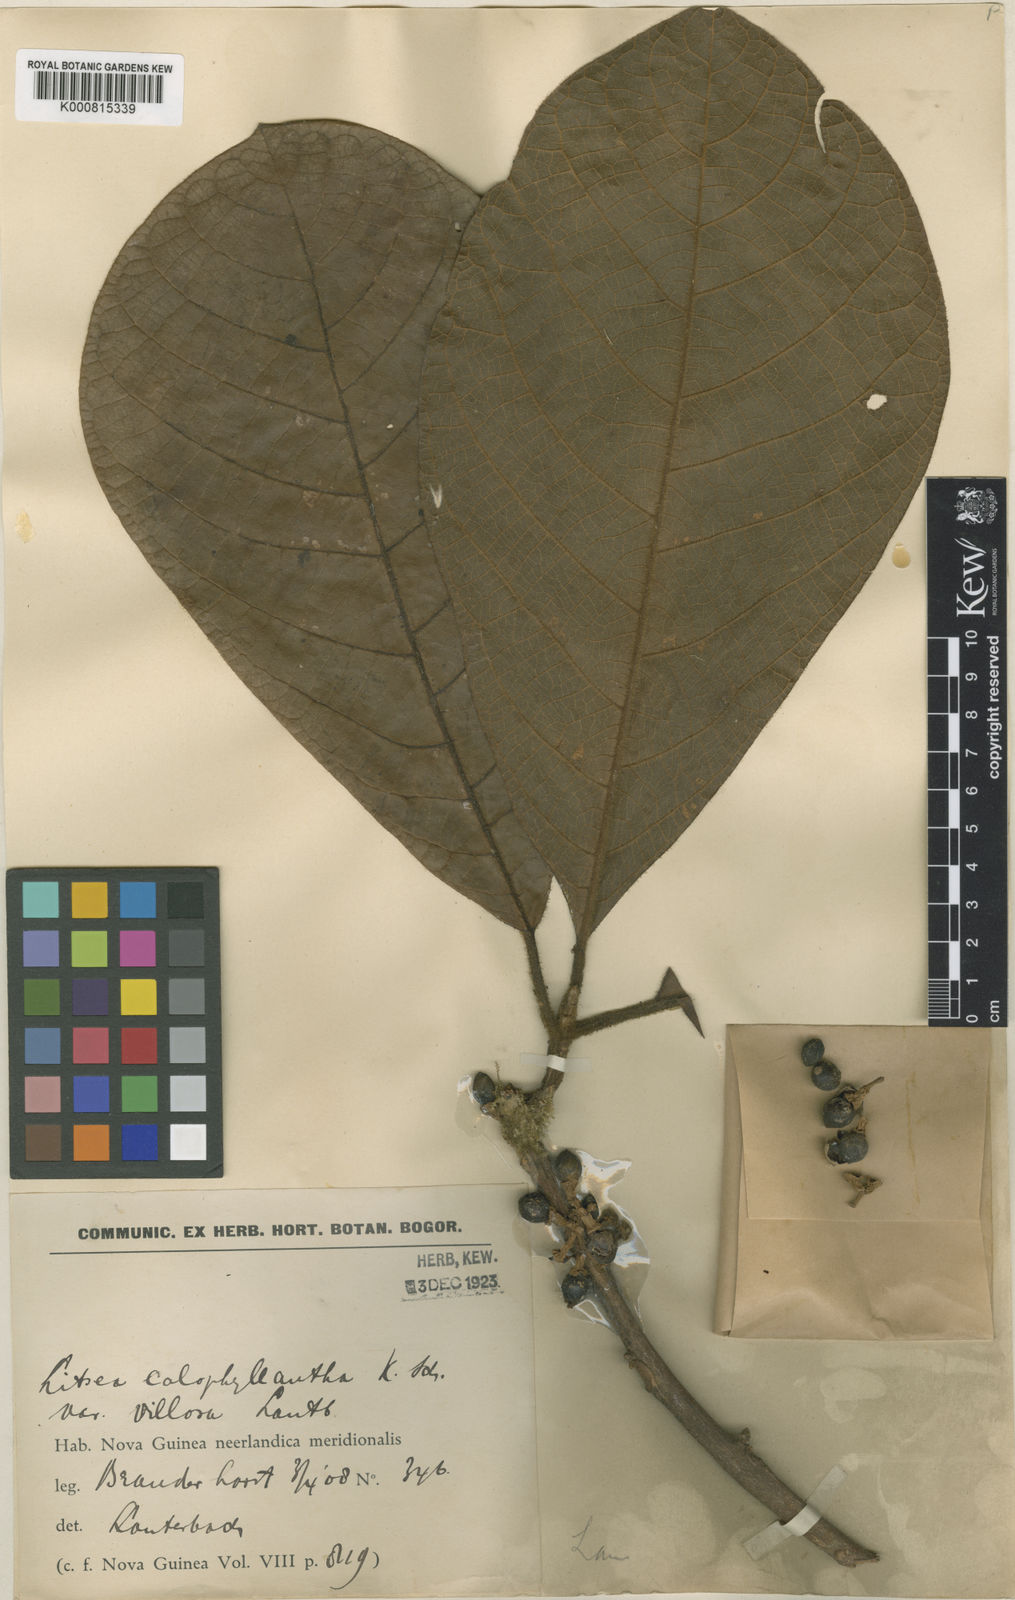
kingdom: Plantae
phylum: Tracheophyta
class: Magnoliopsida
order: Laurales
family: Lauraceae
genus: Litsea
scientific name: Litsea calophyllantha
